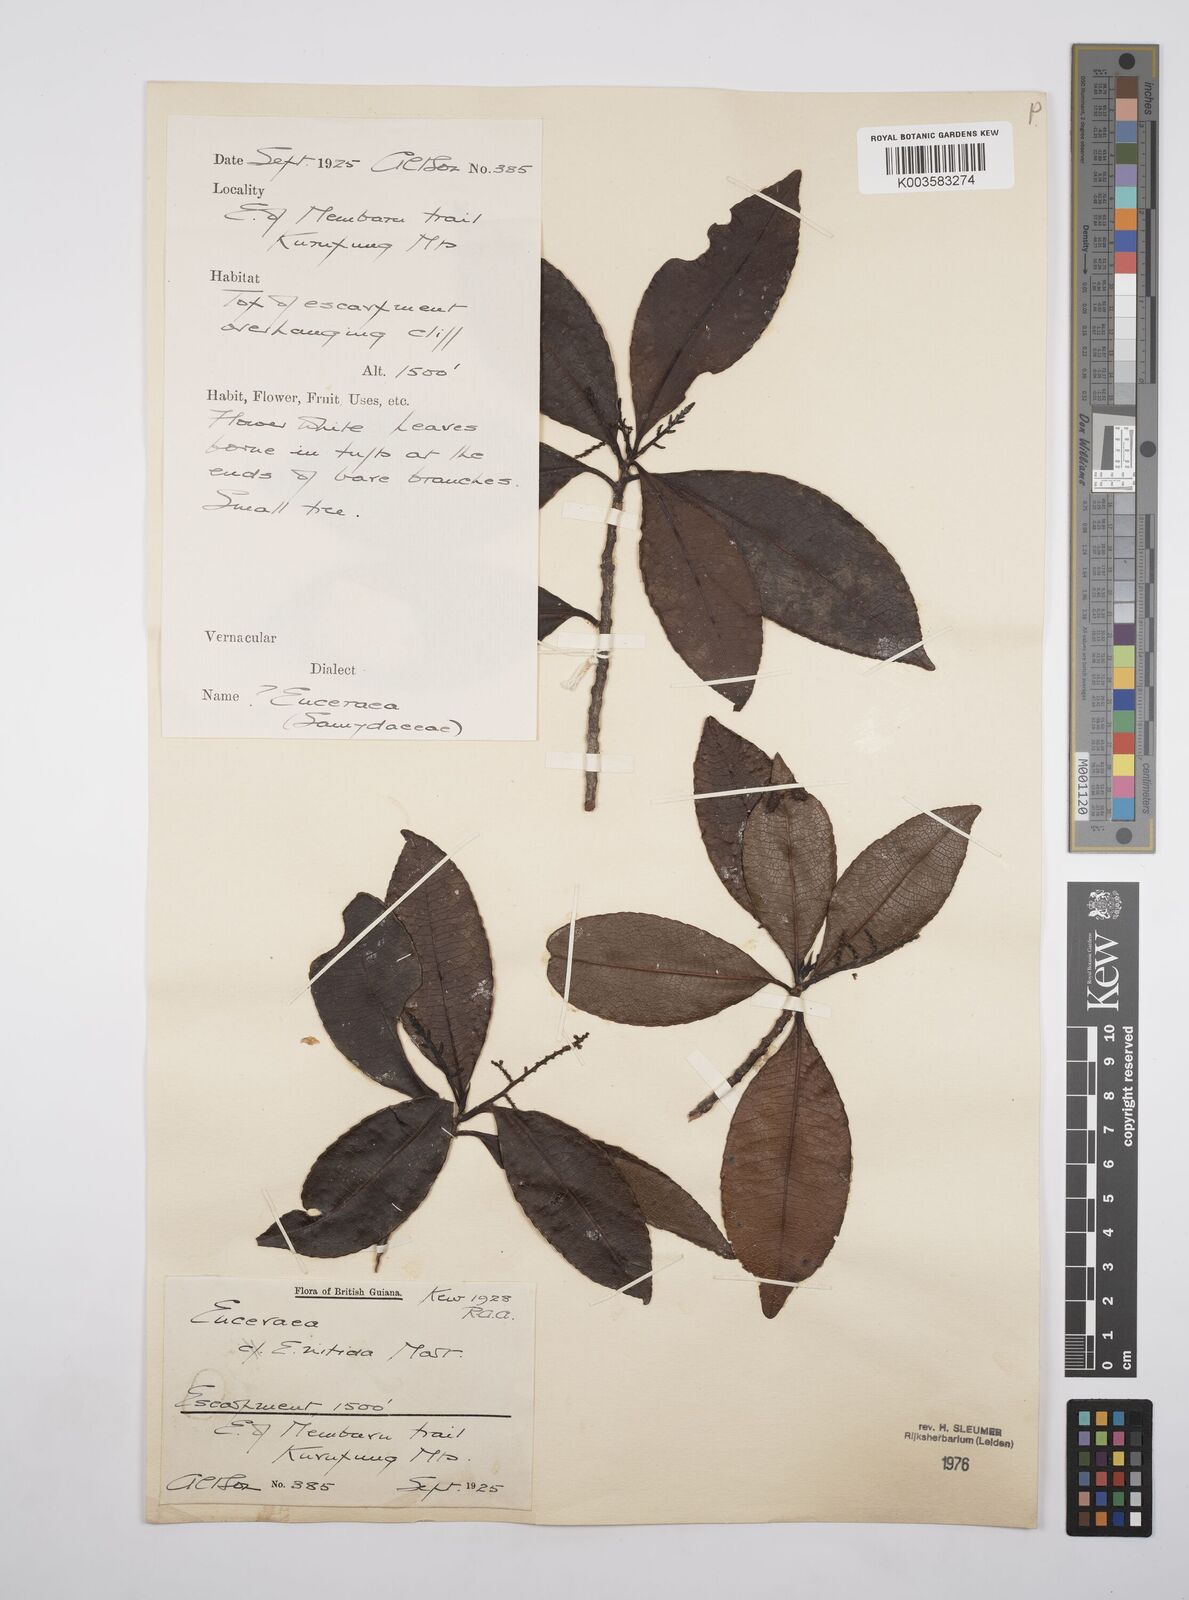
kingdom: Plantae
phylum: Tracheophyta
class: Magnoliopsida
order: Malpighiales
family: Salicaceae
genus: Casearia
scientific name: Casearia euceraea
